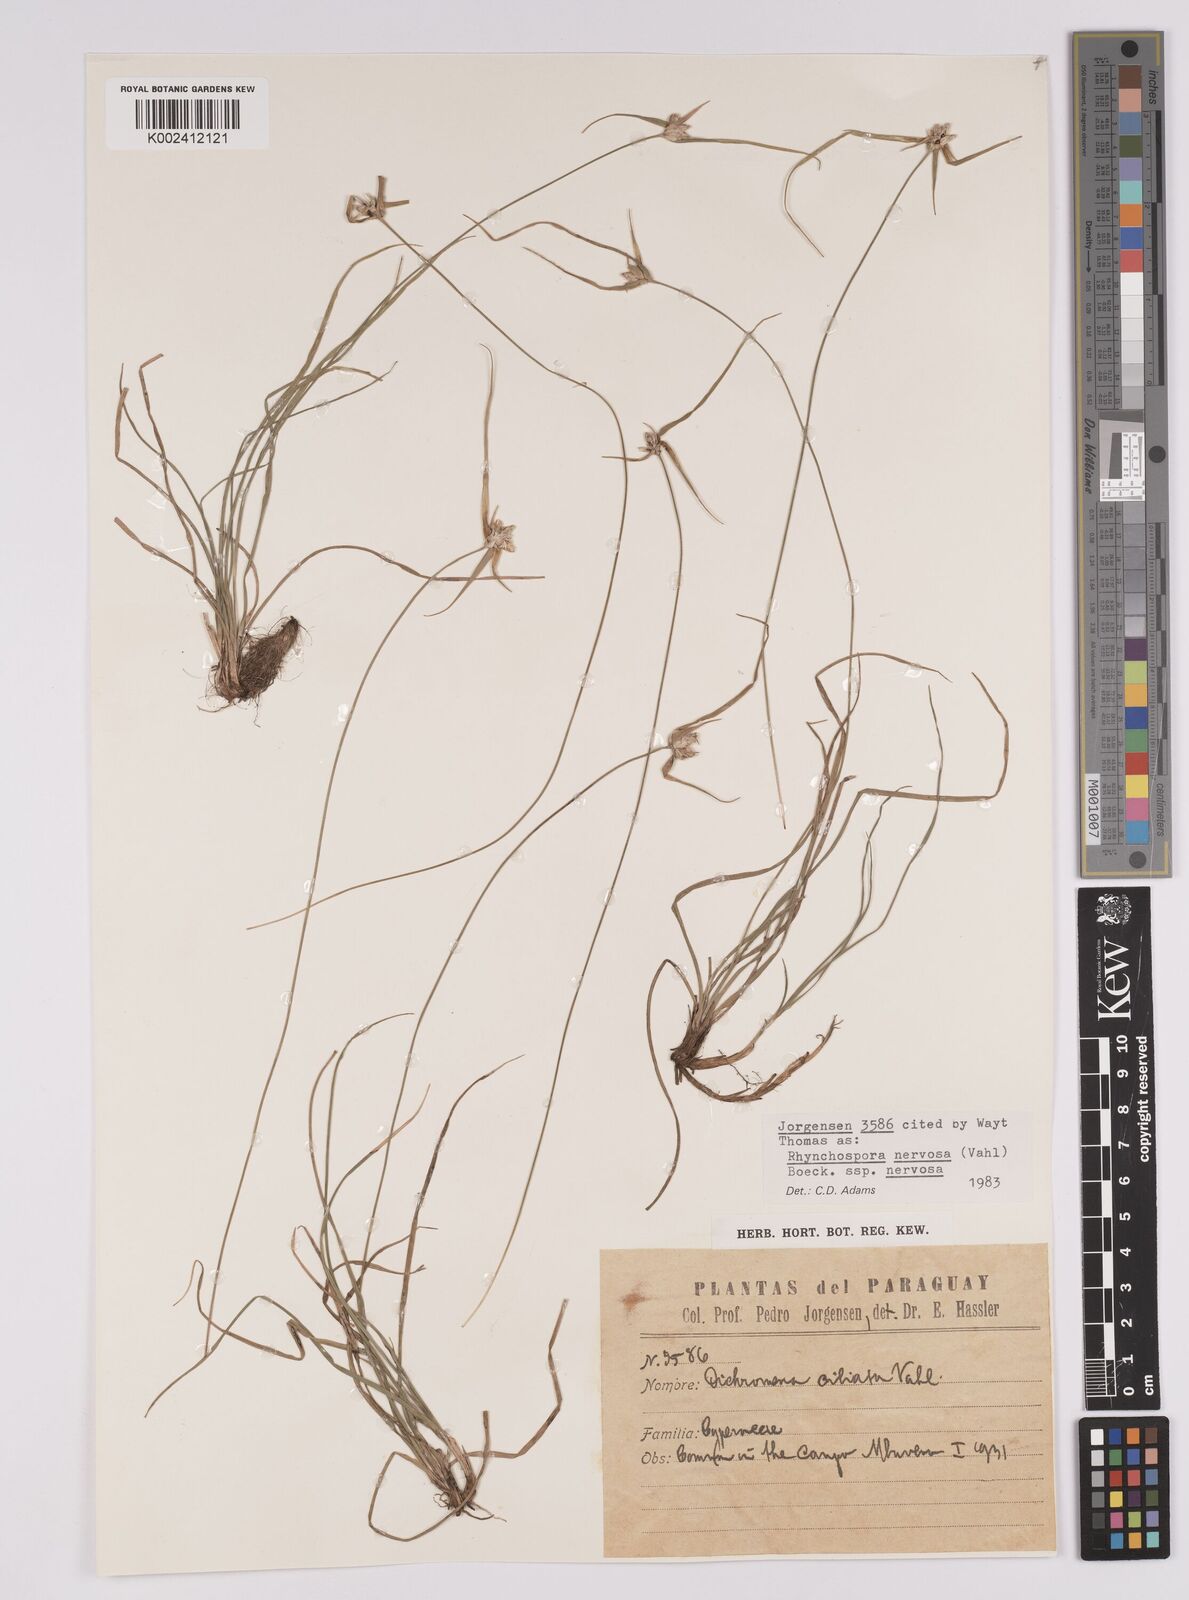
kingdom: Plantae
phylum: Tracheophyta
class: Liliopsida
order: Poales
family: Cyperaceae
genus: Rhynchospora
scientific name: Rhynchospora nervosa
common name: Star sedge
